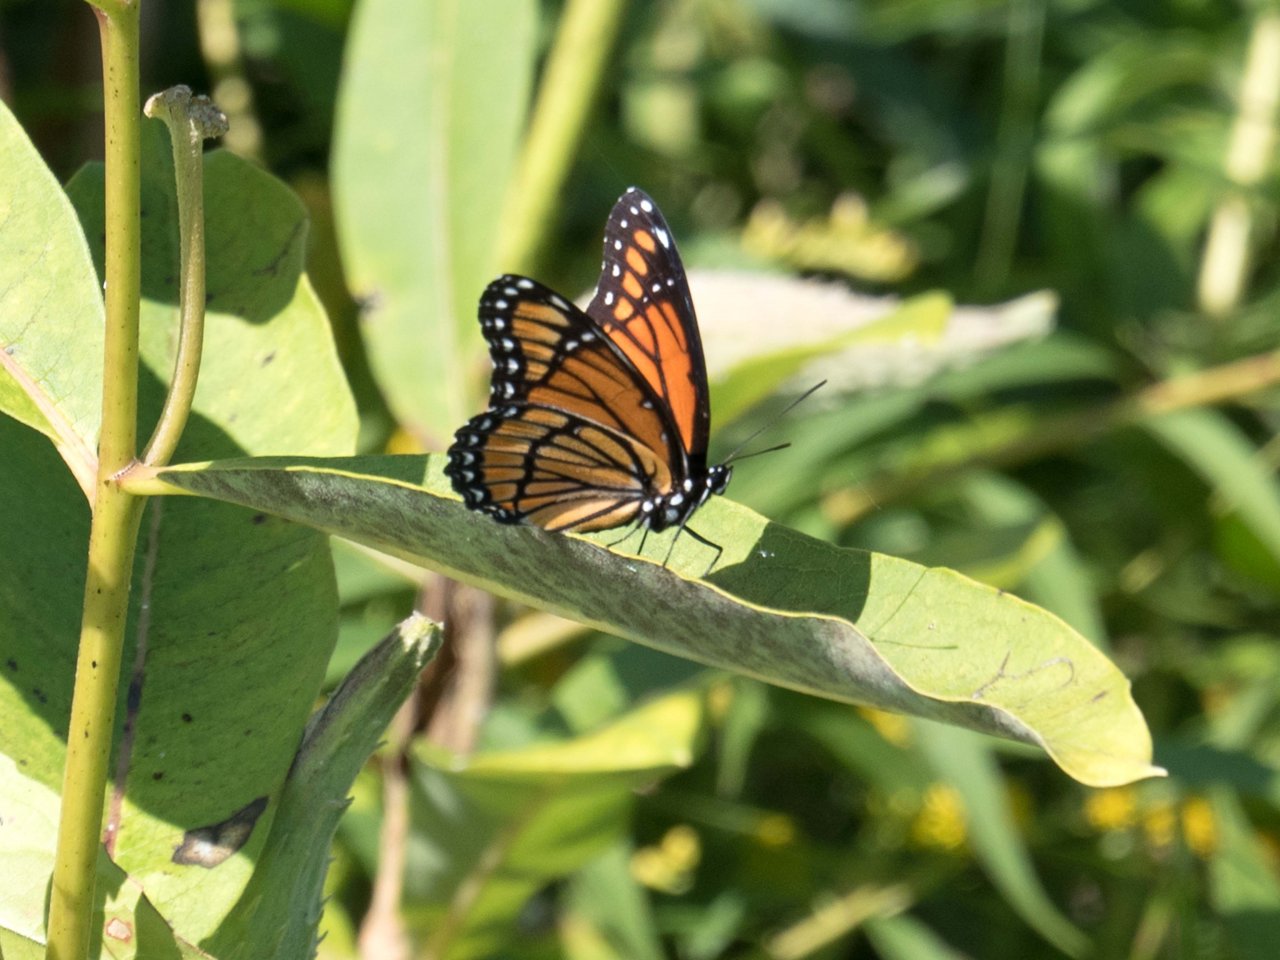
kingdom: Animalia
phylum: Arthropoda
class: Insecta
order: Lepidoptera
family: Nymphalidae
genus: Limenitis
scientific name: Limenitis archippus
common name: Viceroy
